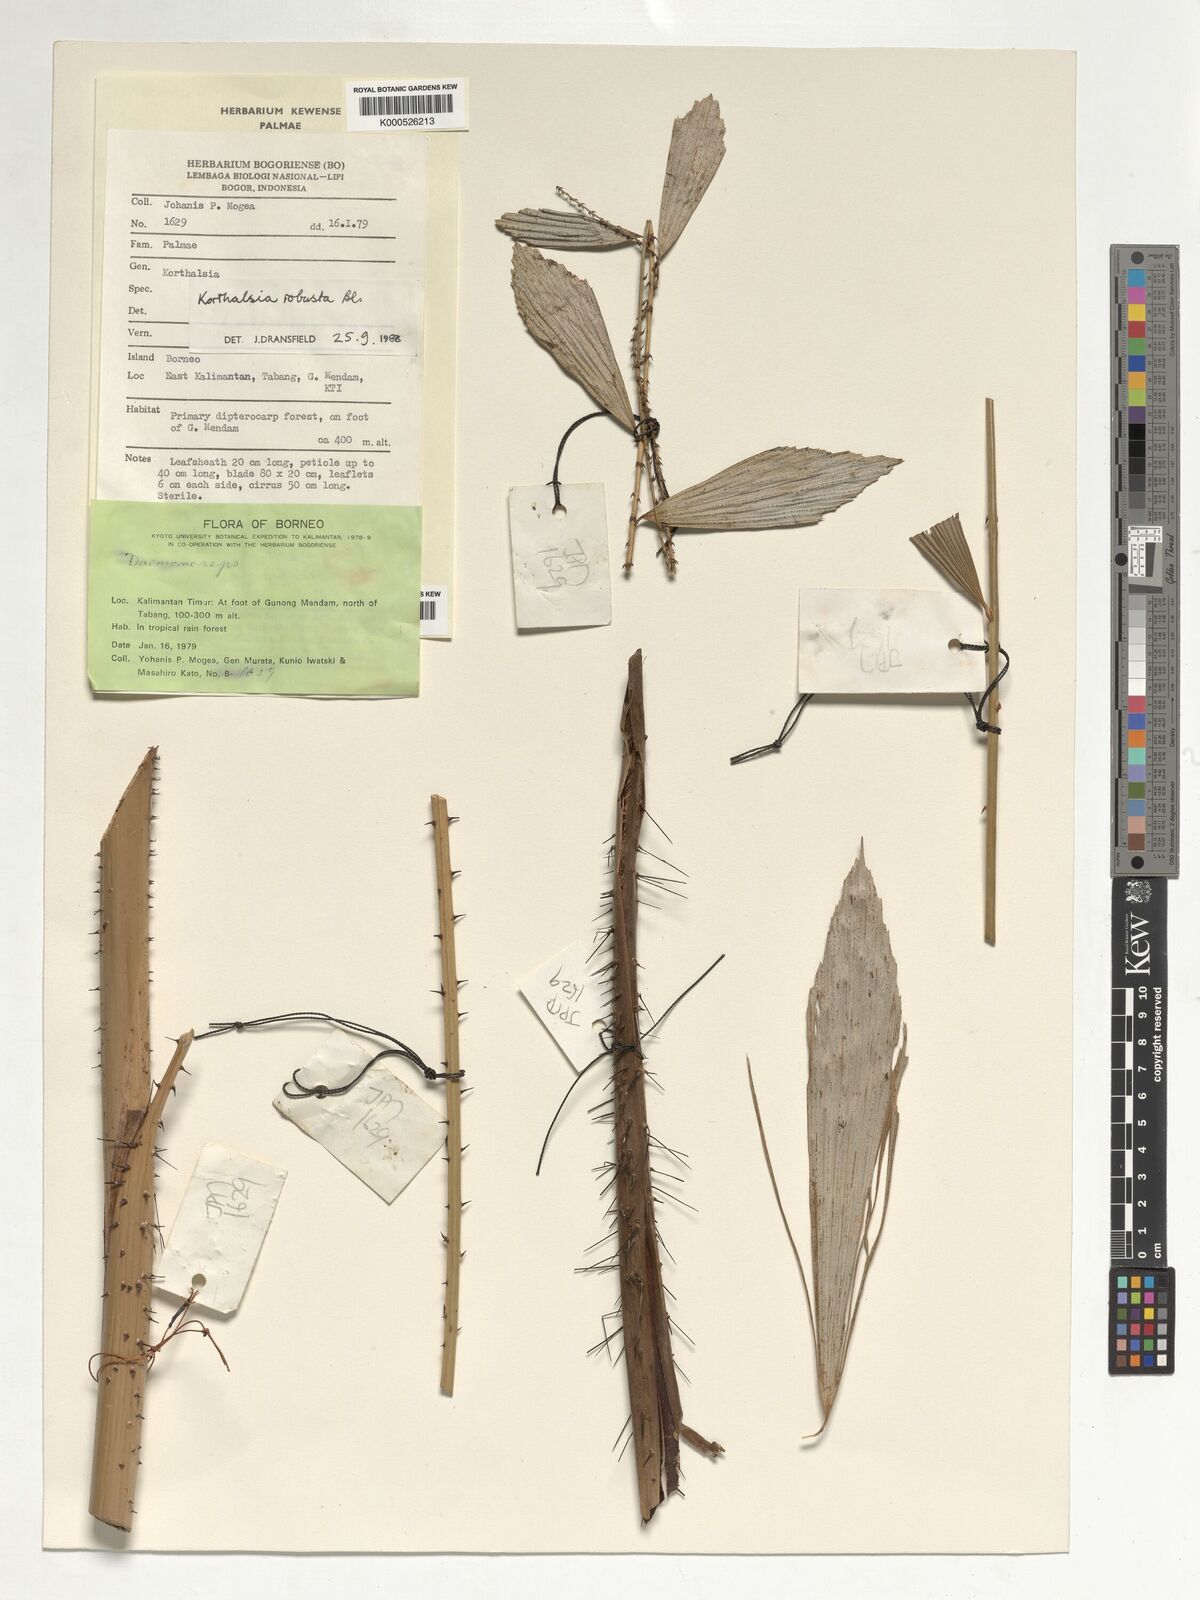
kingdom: Plantae
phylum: Tracheophyta
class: Liliopsida
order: Arecales
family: Arecaceae
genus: Korthalsia
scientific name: Korthalsia robusta
